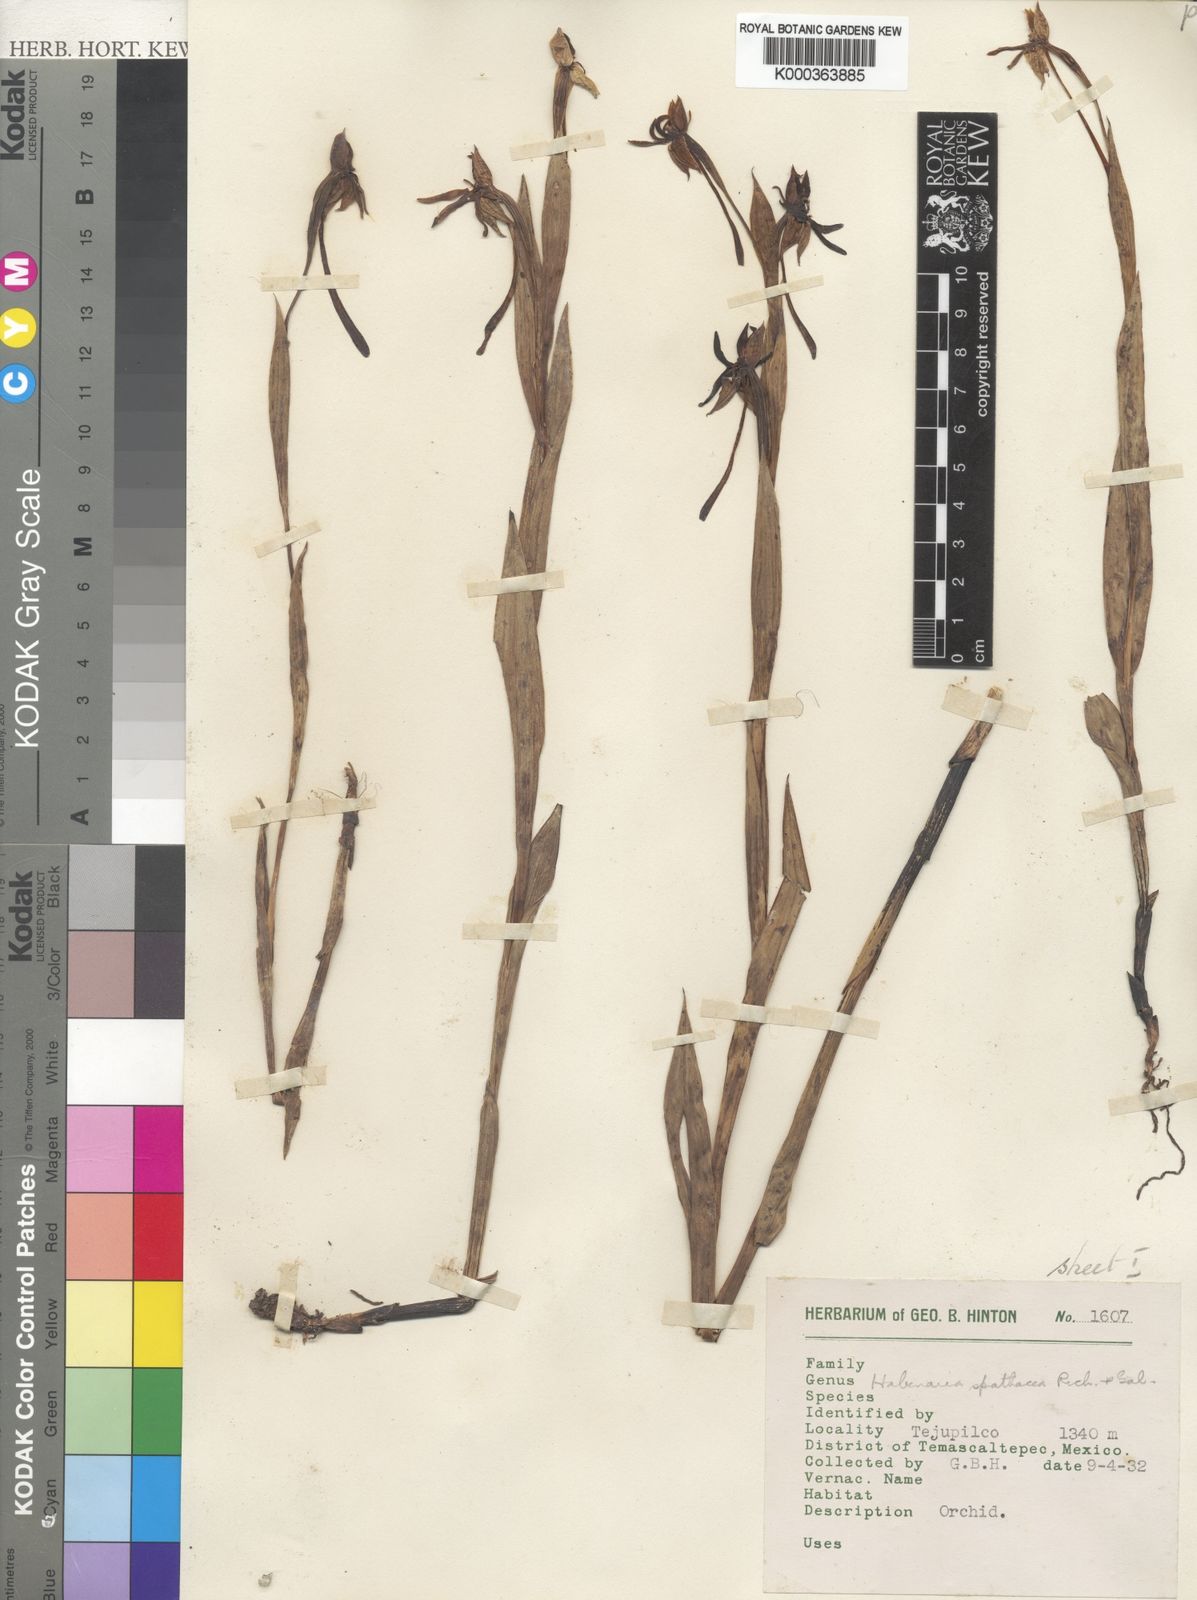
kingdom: Plantae
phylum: Tracheophyta
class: Liliopsida
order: Asparagales
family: Orchidaceae
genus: Habenaria
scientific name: Habenaria trifida
